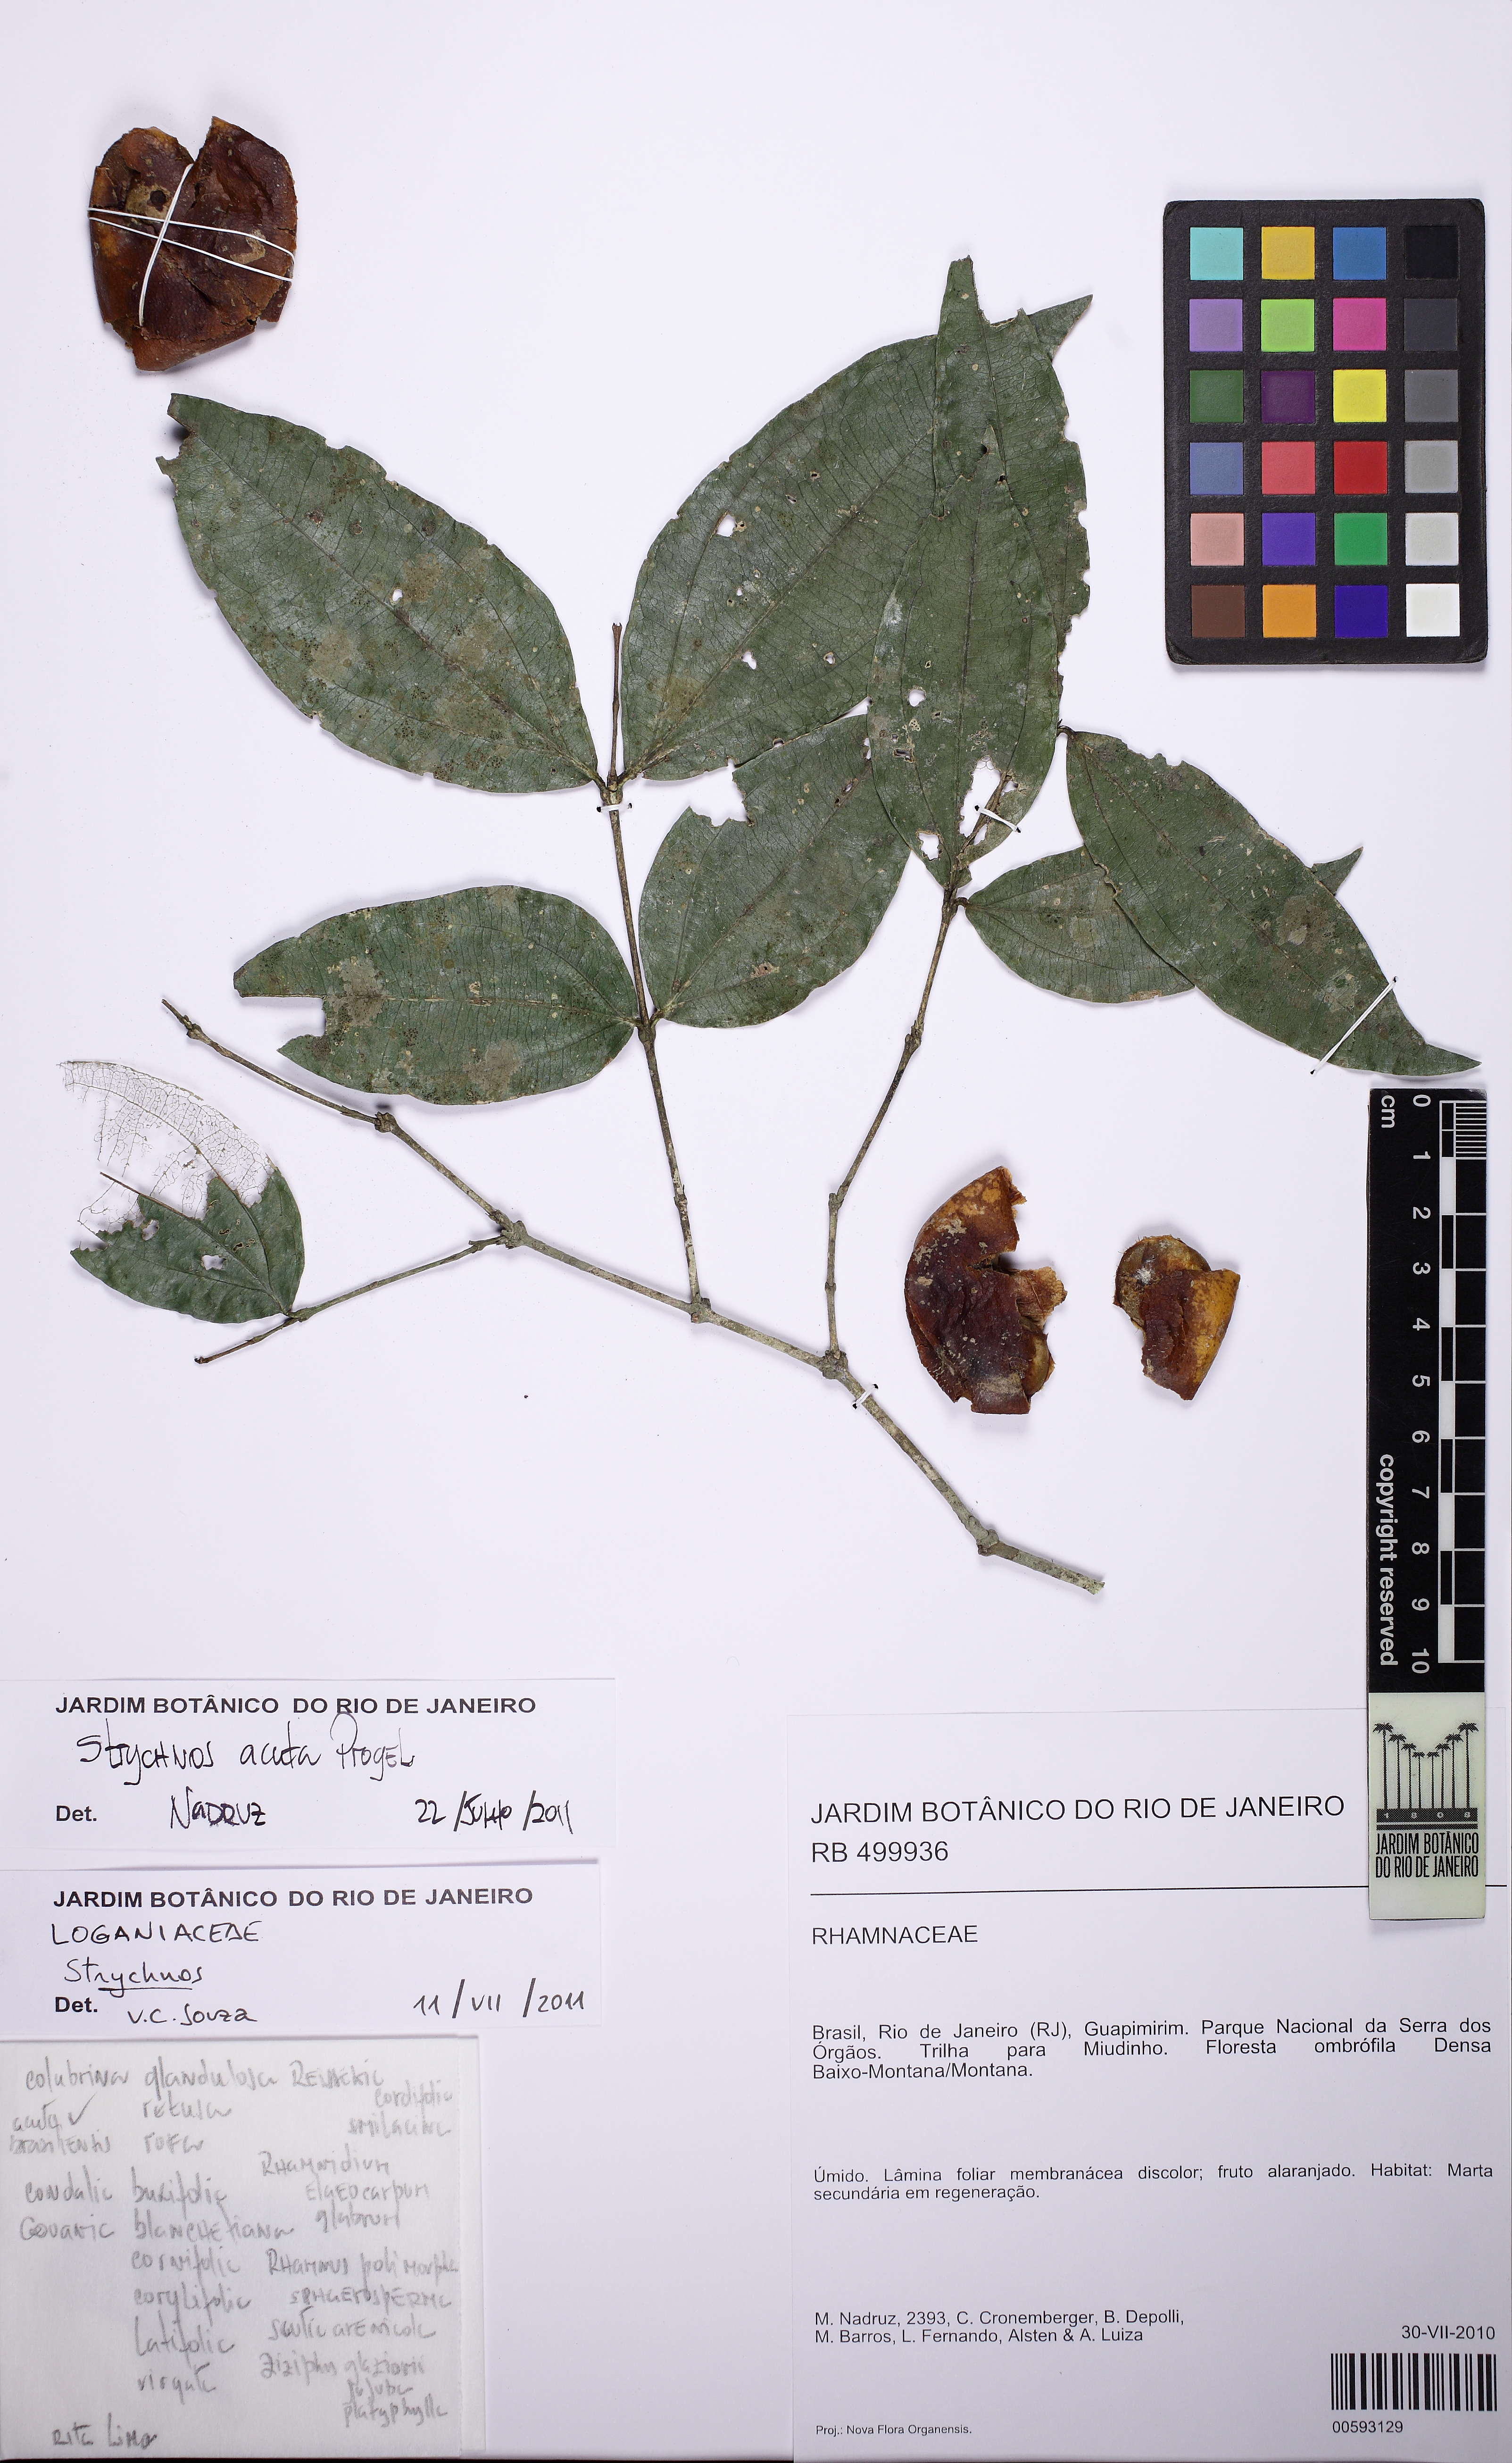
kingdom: Plantae
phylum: Tracheophyta
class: Magnoliopsida
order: Gentianales
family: Loganiaceae
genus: Strychnos
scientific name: Strychnos acuta
